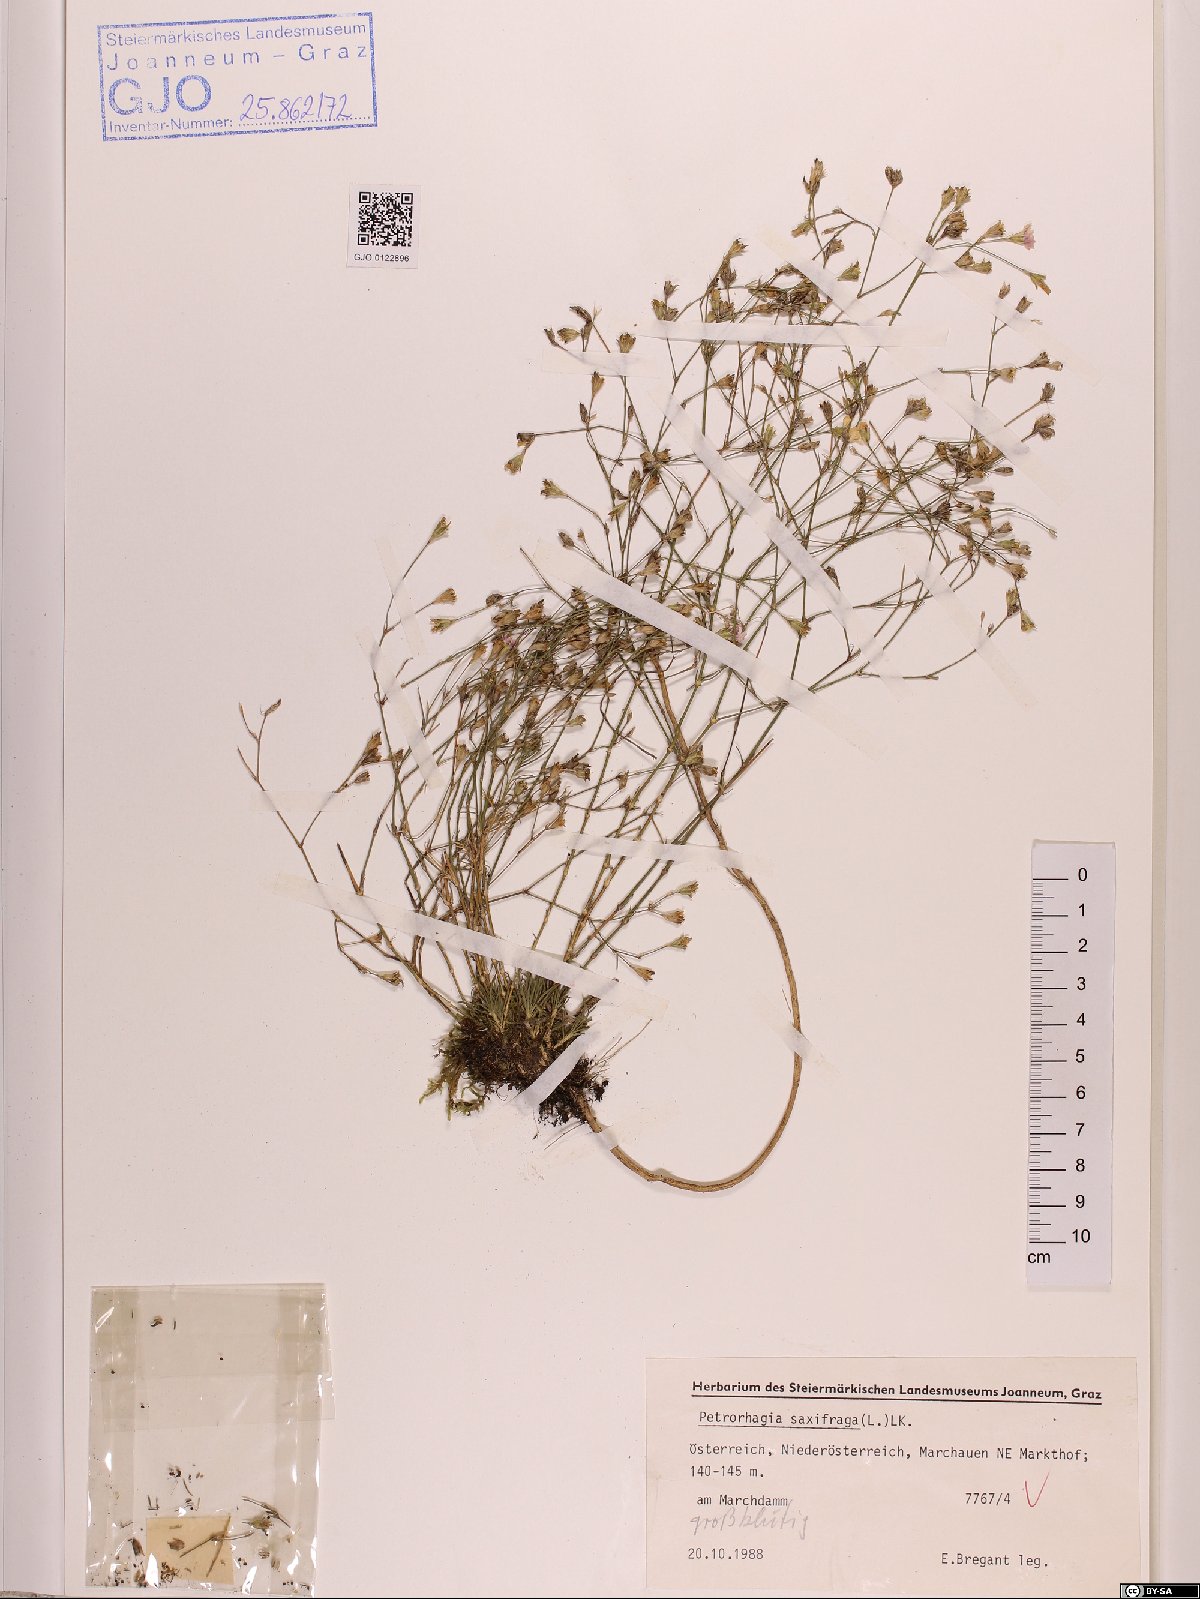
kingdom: Plantae
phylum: Tracheophyta
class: Magnoliopsida
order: Caryophyllales
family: Caryophyllaceae
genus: Petrorhagia
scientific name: Petrorhagia saxifraga
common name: Tunicflower
